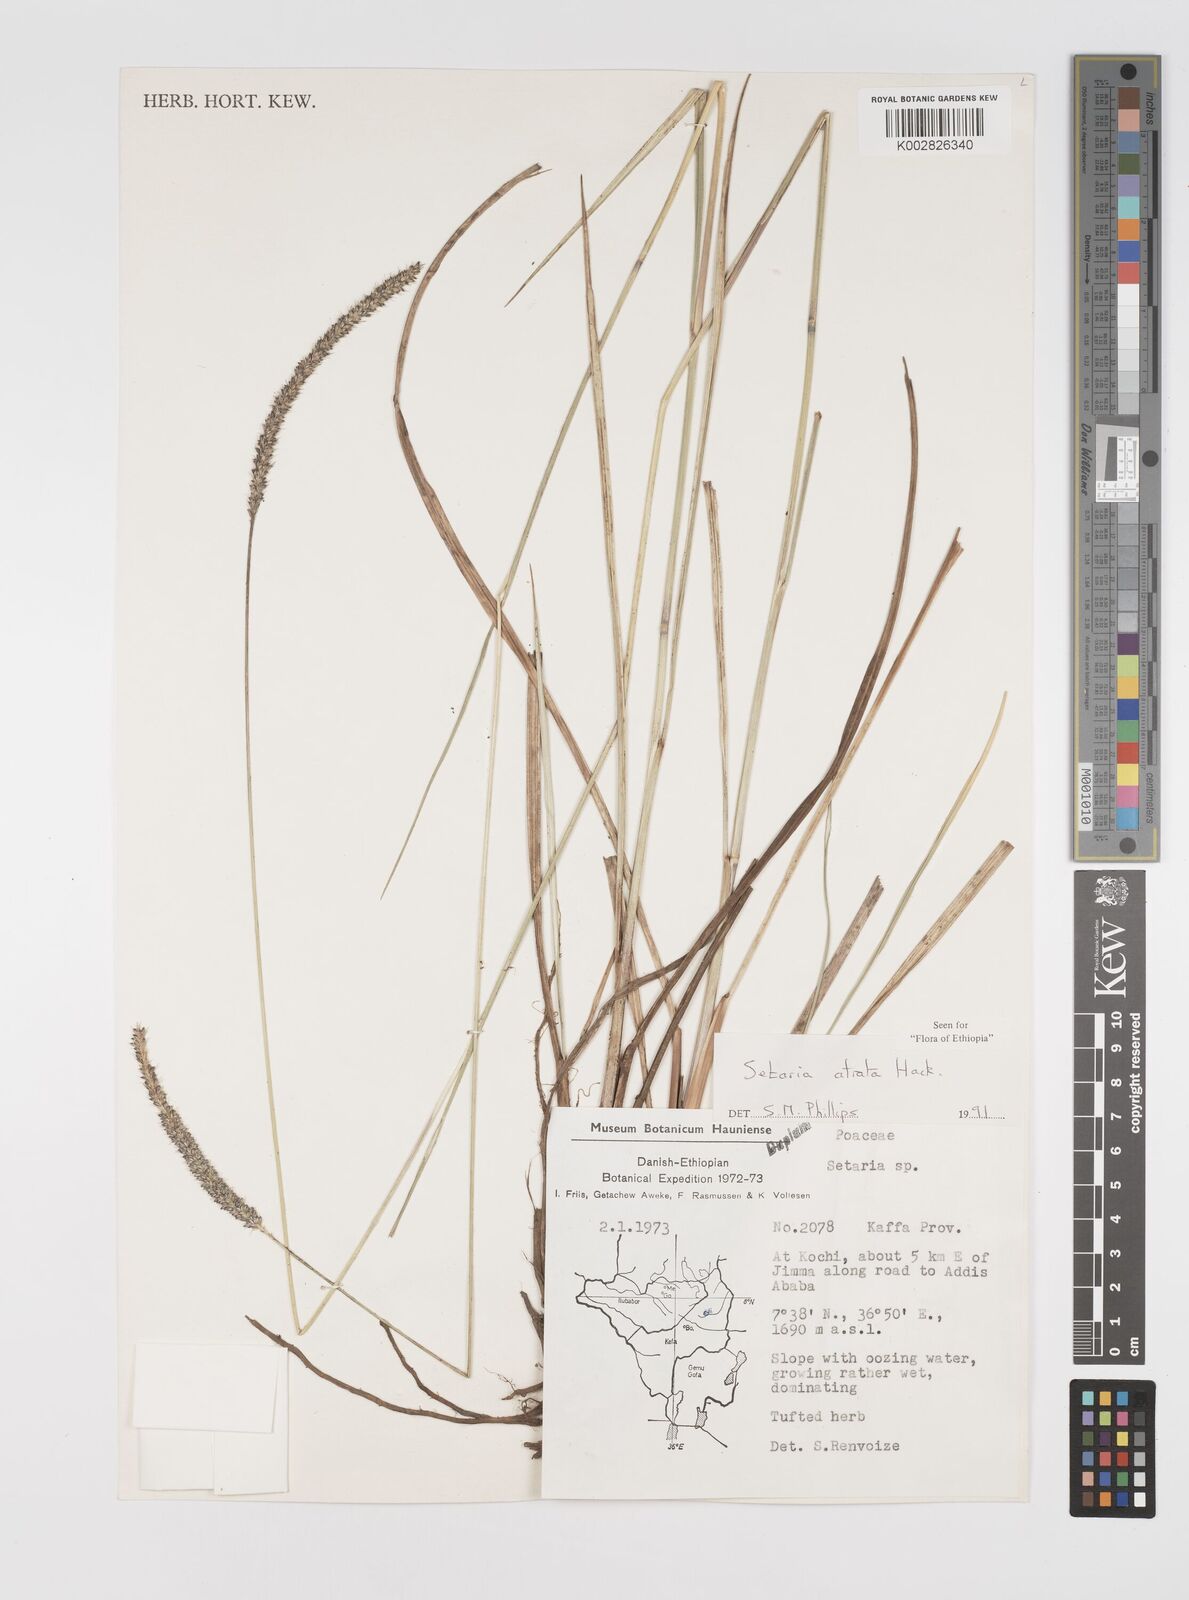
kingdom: Plantae
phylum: Tracheophyta
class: Liliopsida
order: Poales
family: Poaceae
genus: Setaria
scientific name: Setaria atrata
